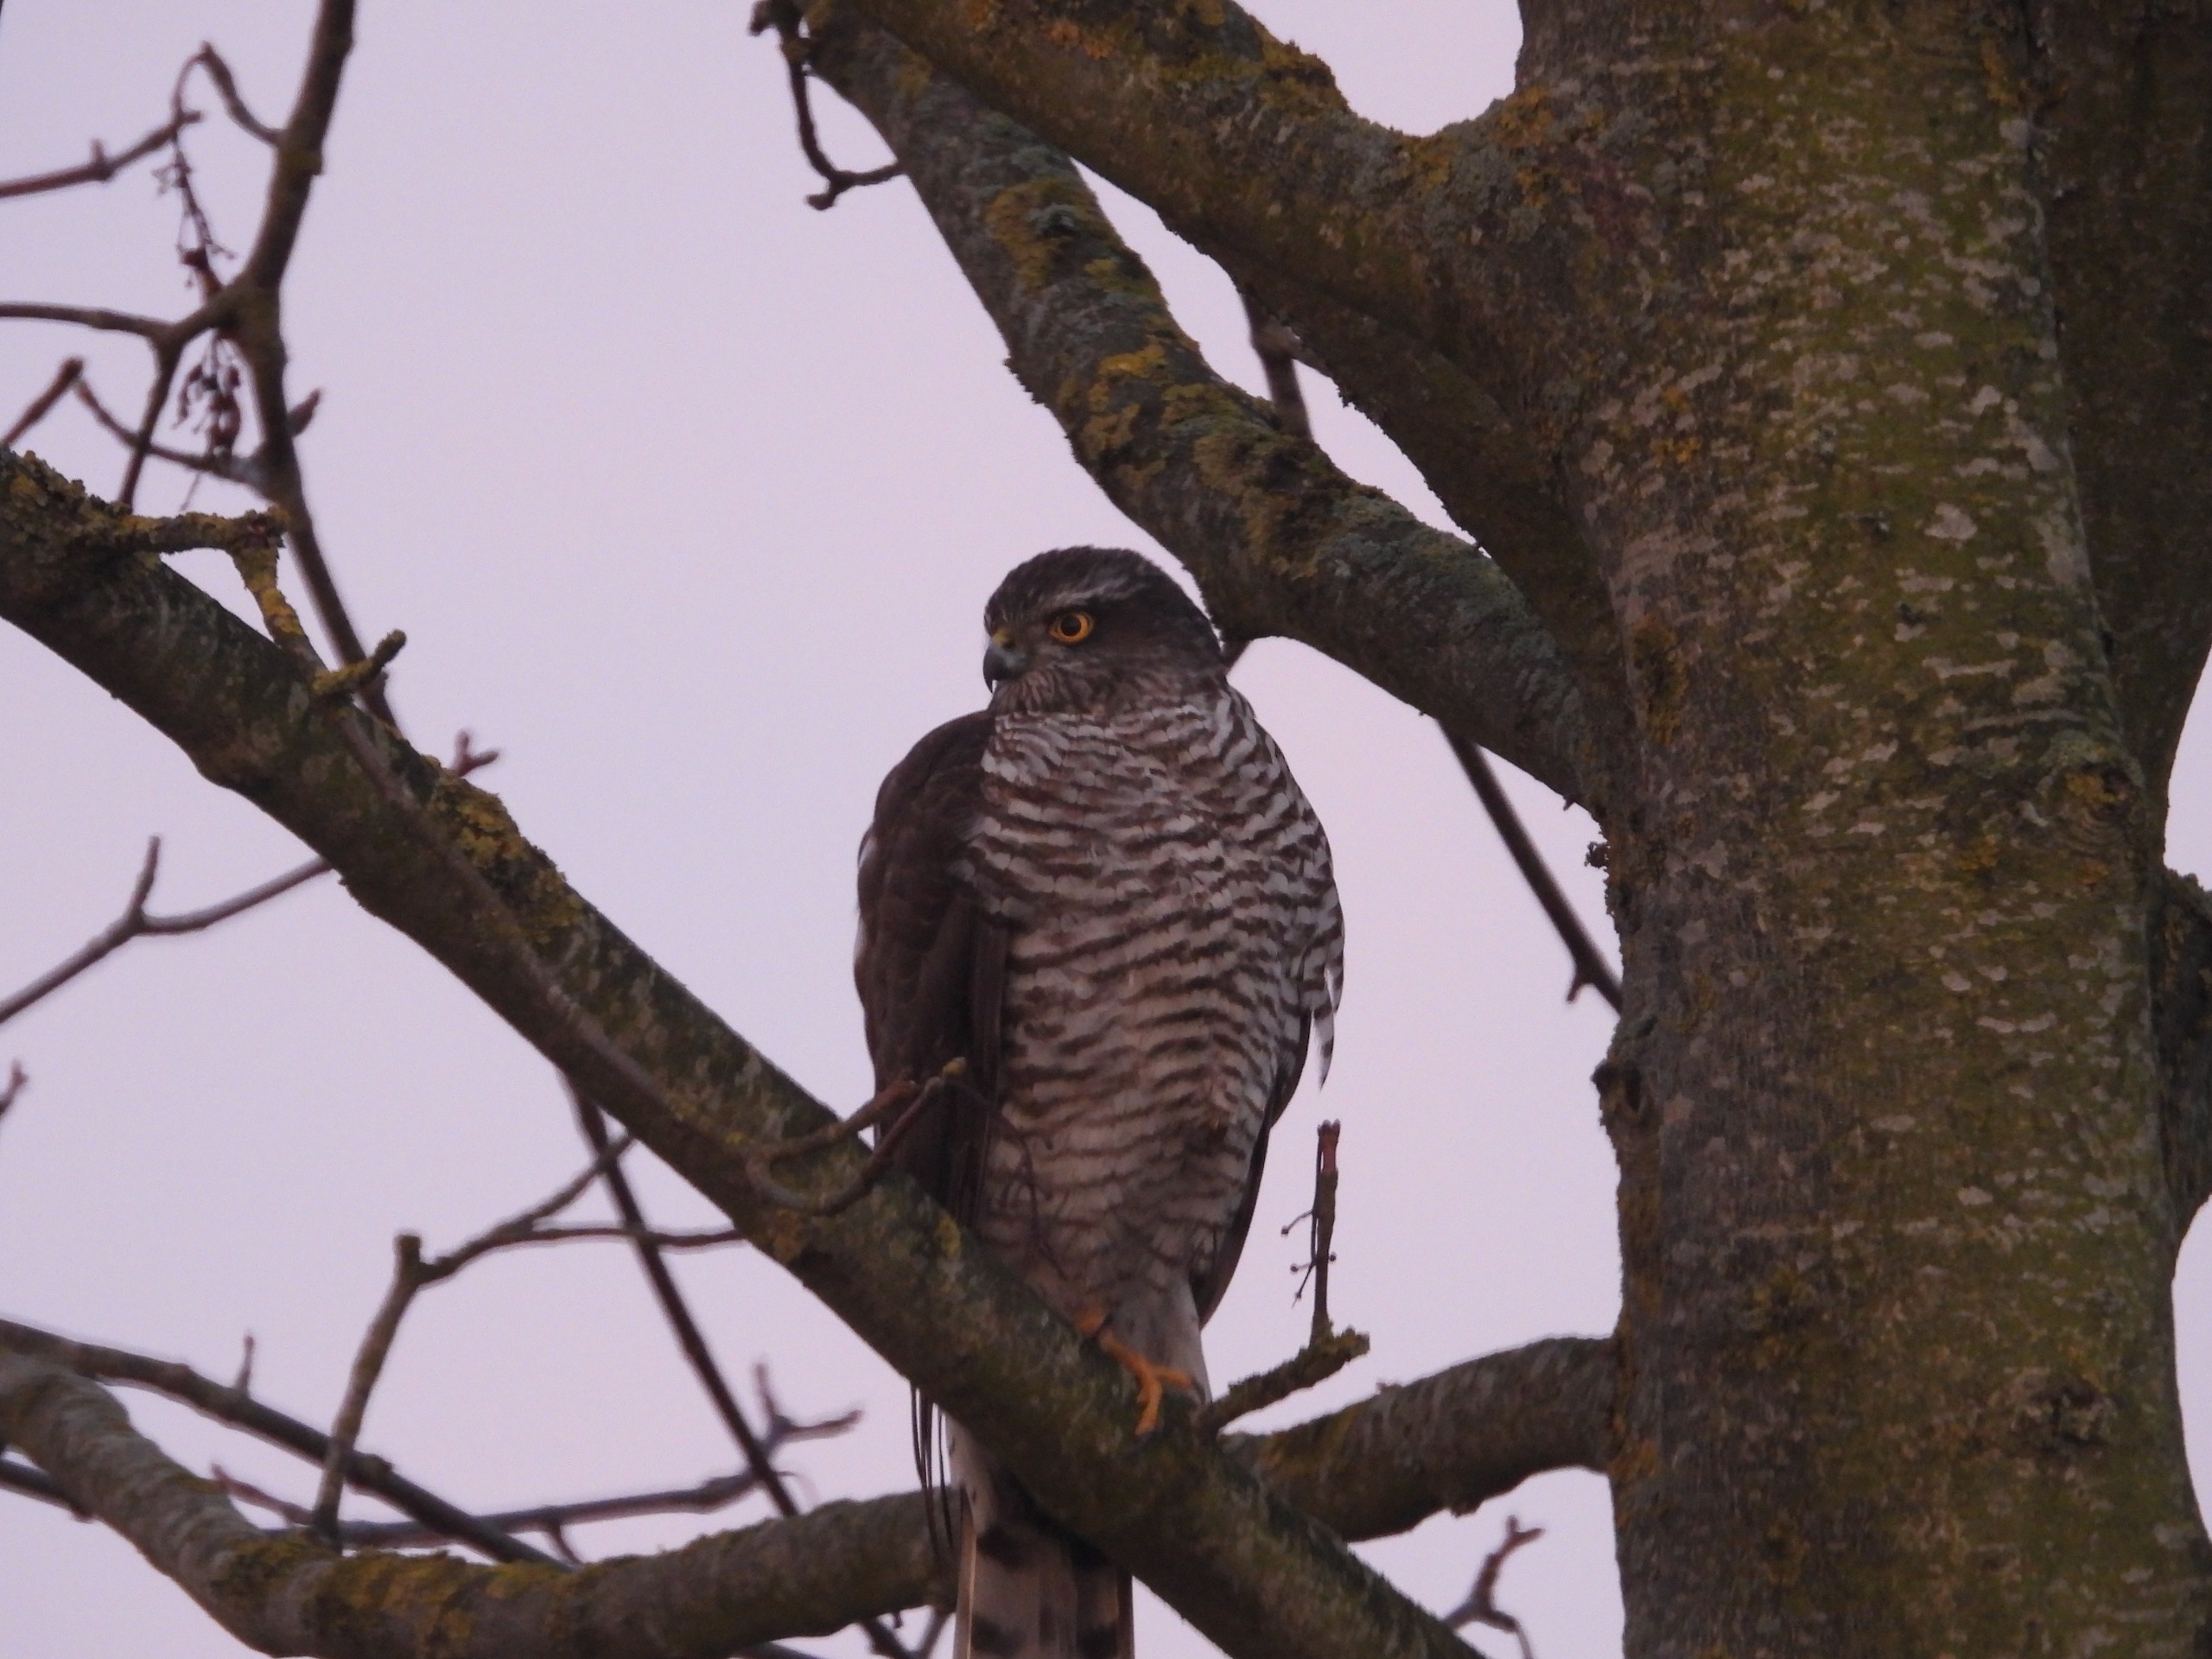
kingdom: Animalia
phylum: Chordata
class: Aves
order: Accipitriformes
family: Accipitridae
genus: Accipiter
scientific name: Accipiter nisus
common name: Spurvehøg
